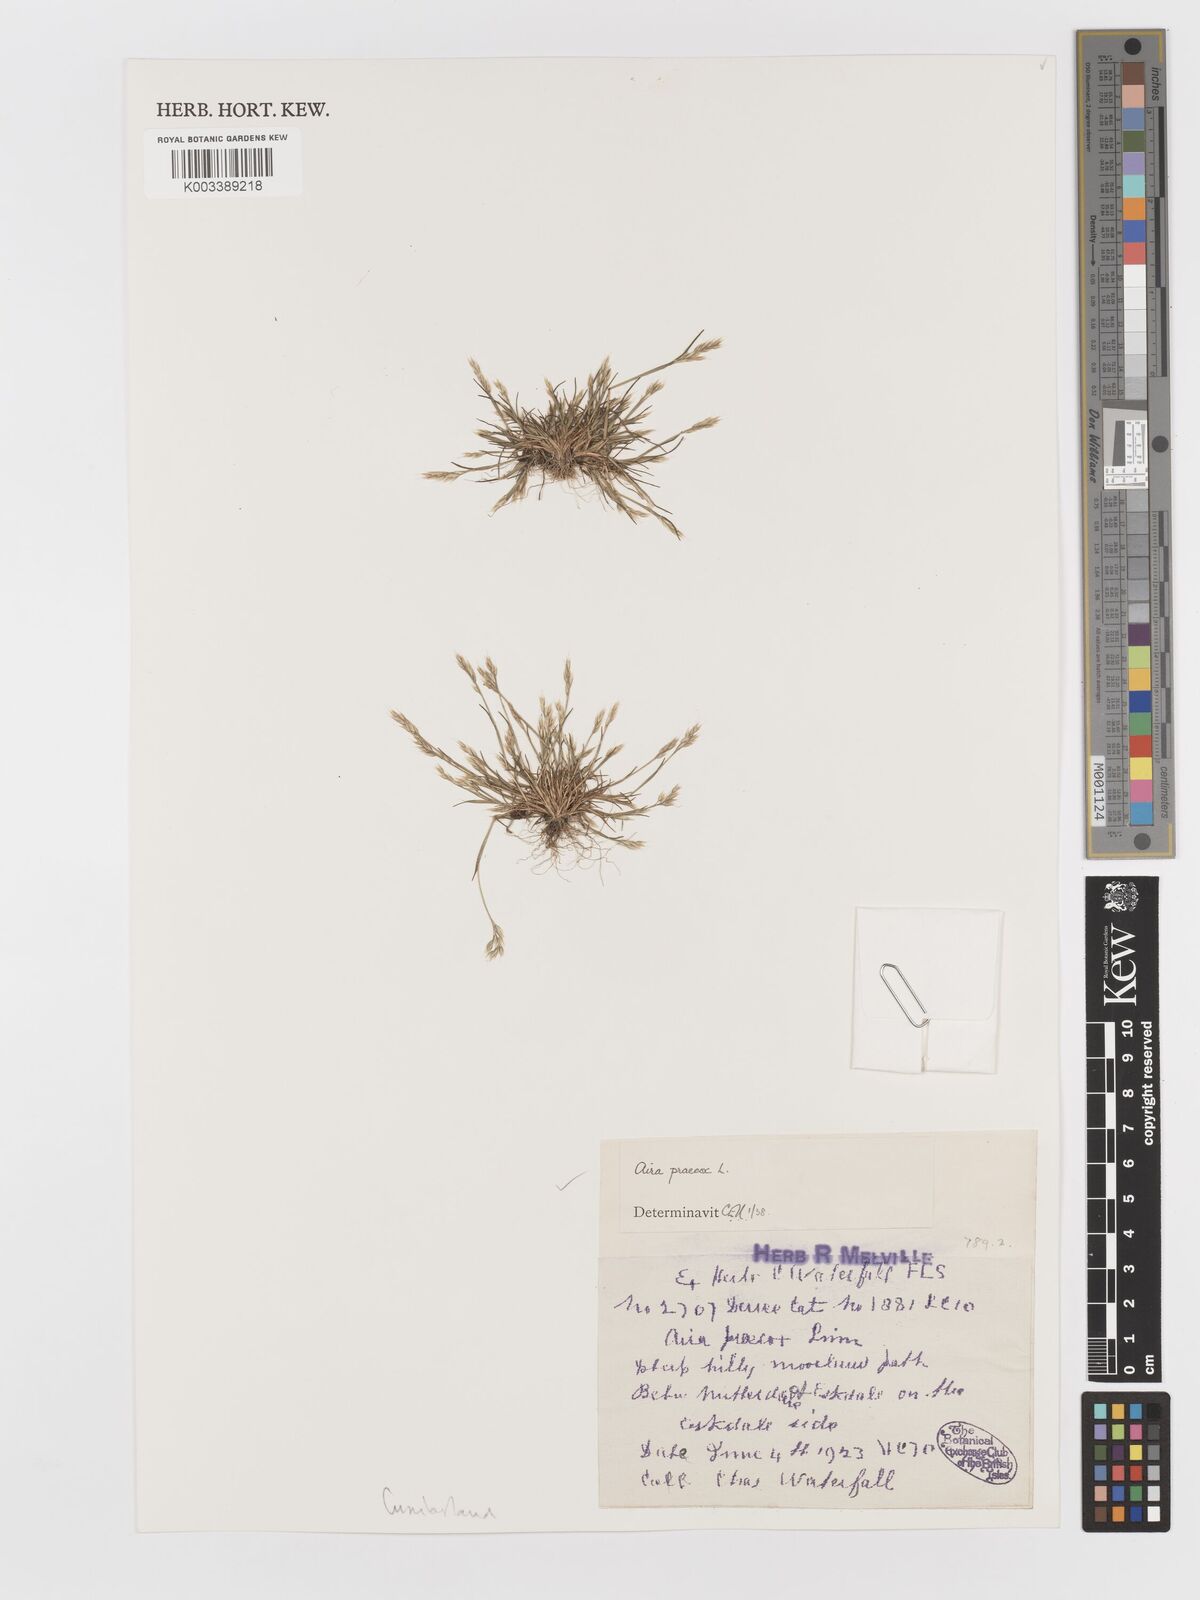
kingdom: Plantae
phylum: Tracheophyta
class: Liliopsida
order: Poales
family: Poaceae
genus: Aira
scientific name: Aira praecox
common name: Early hair-grass
